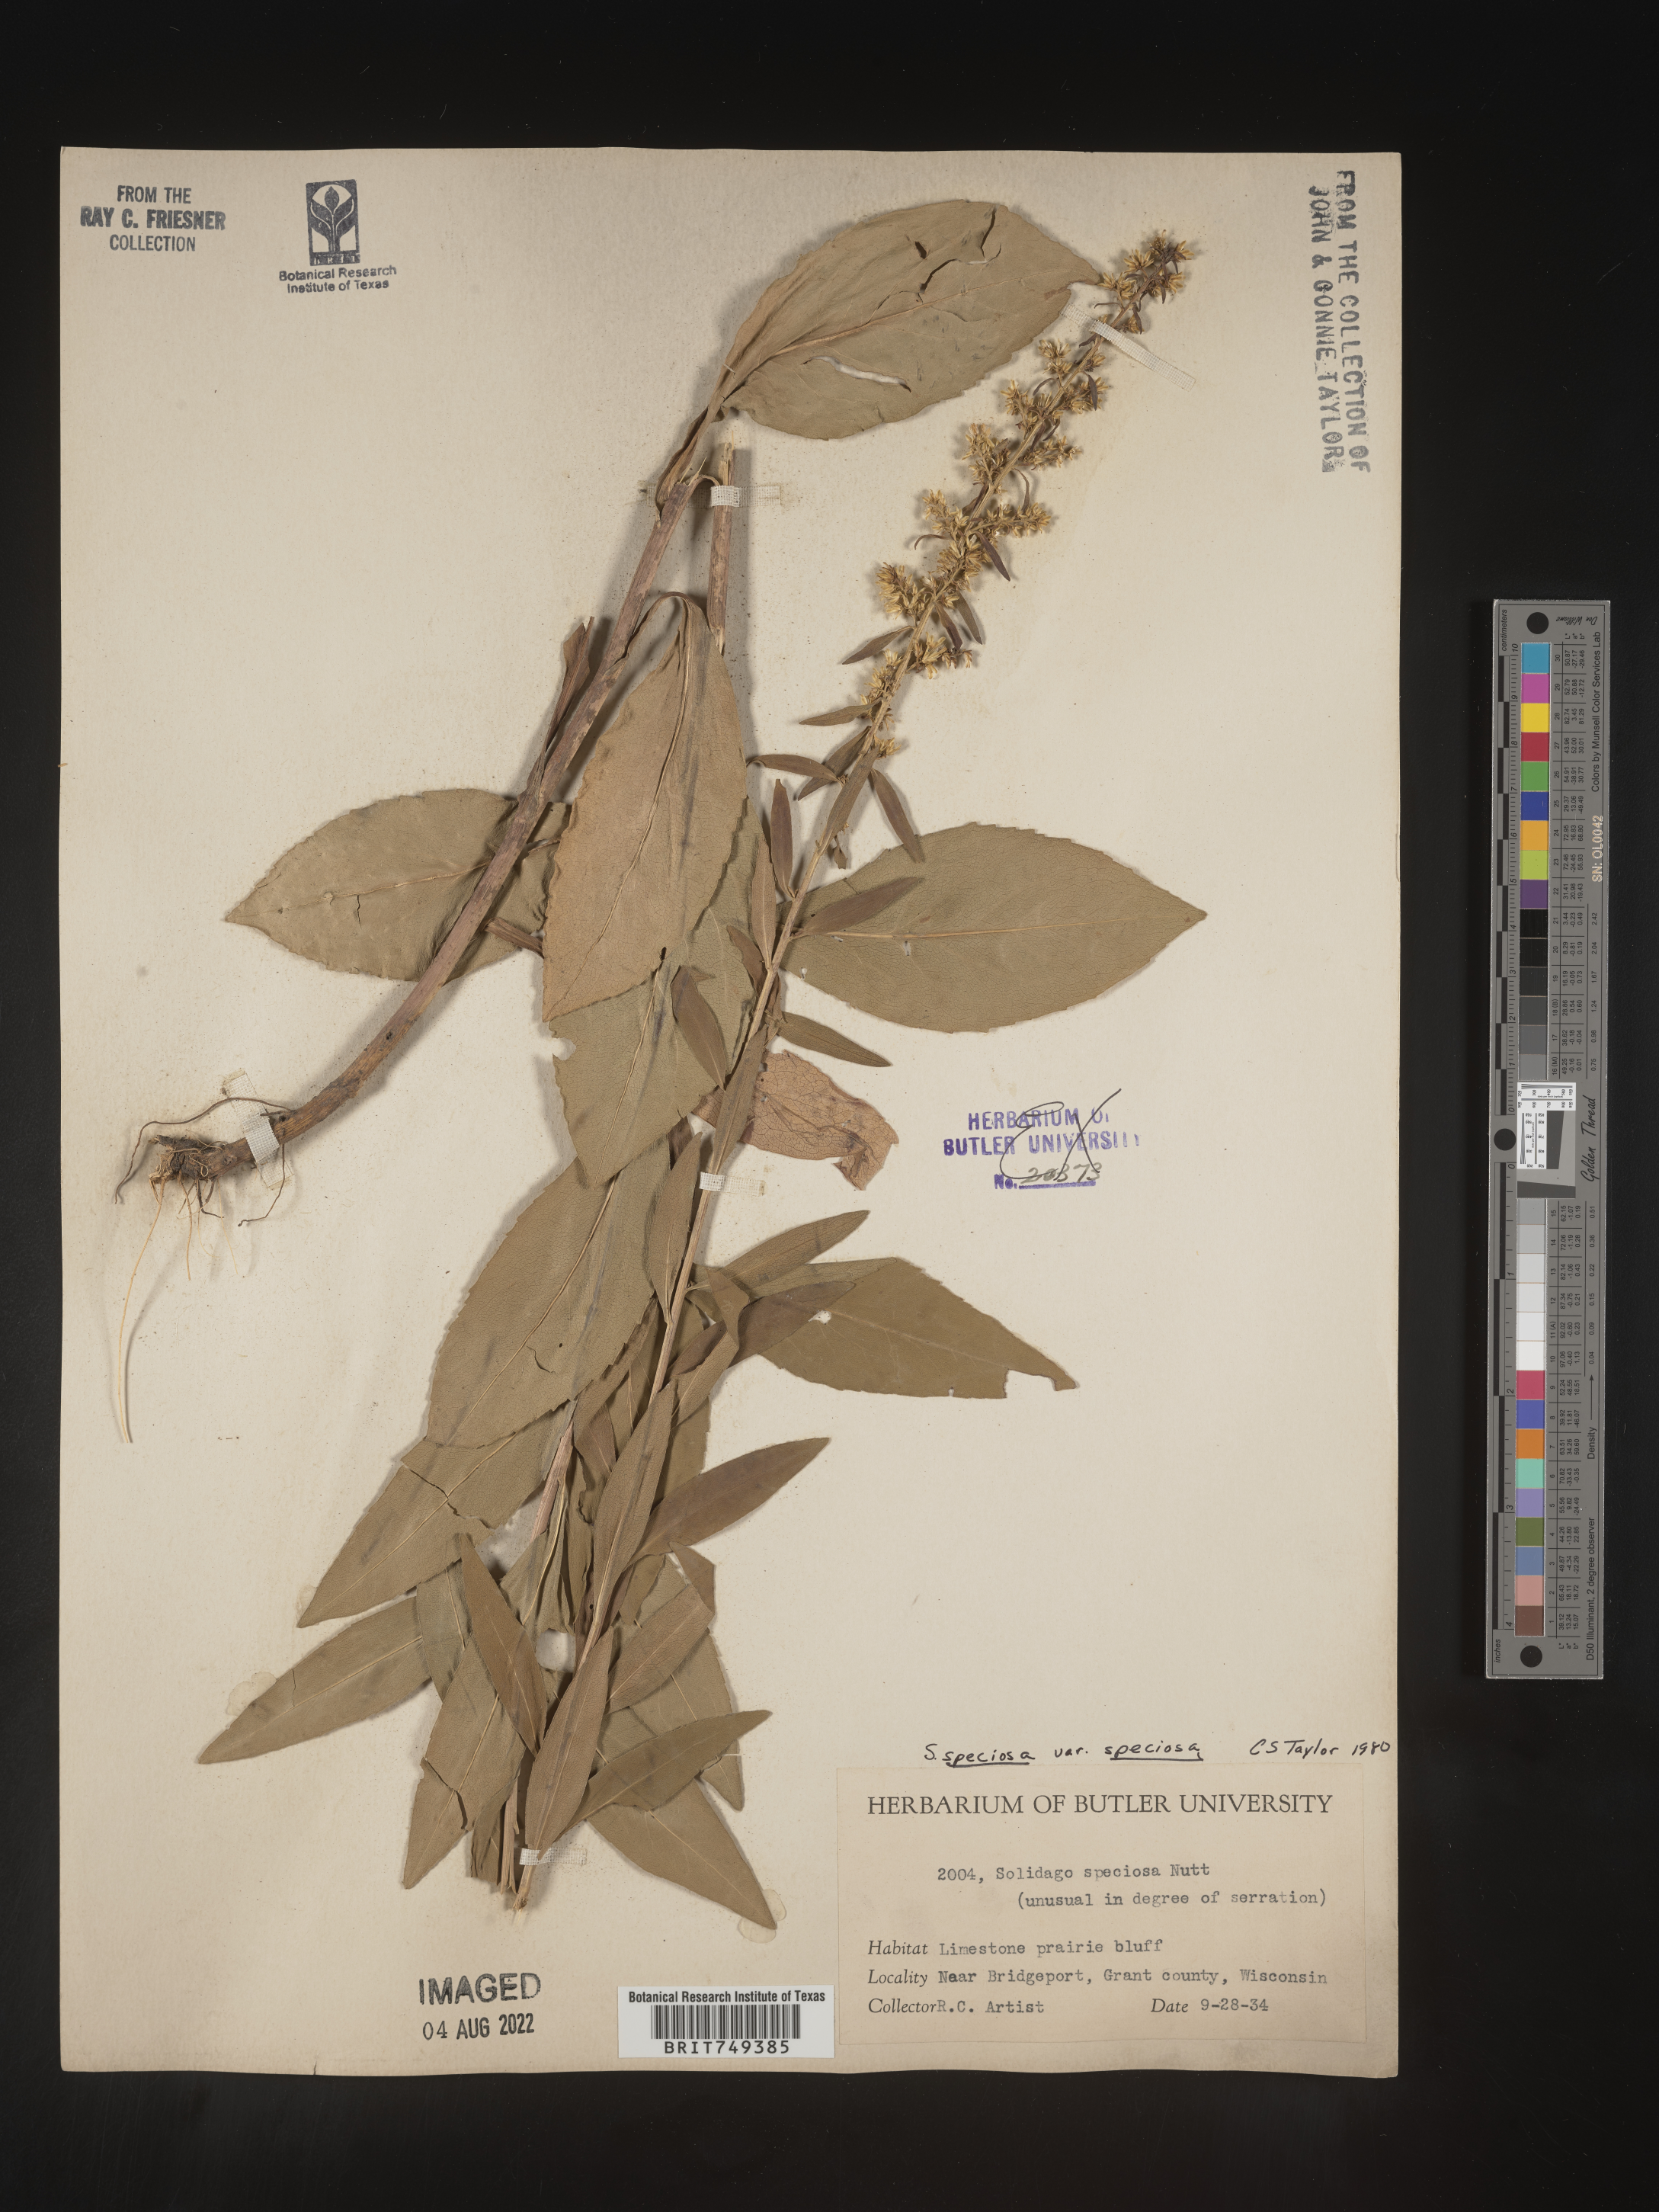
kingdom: Plantae
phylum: Tracheophyta
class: Magnoliopsida
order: Asterales
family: Asteraceae
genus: Solidago
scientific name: Solidago speciosa
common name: Showy goldenrod
